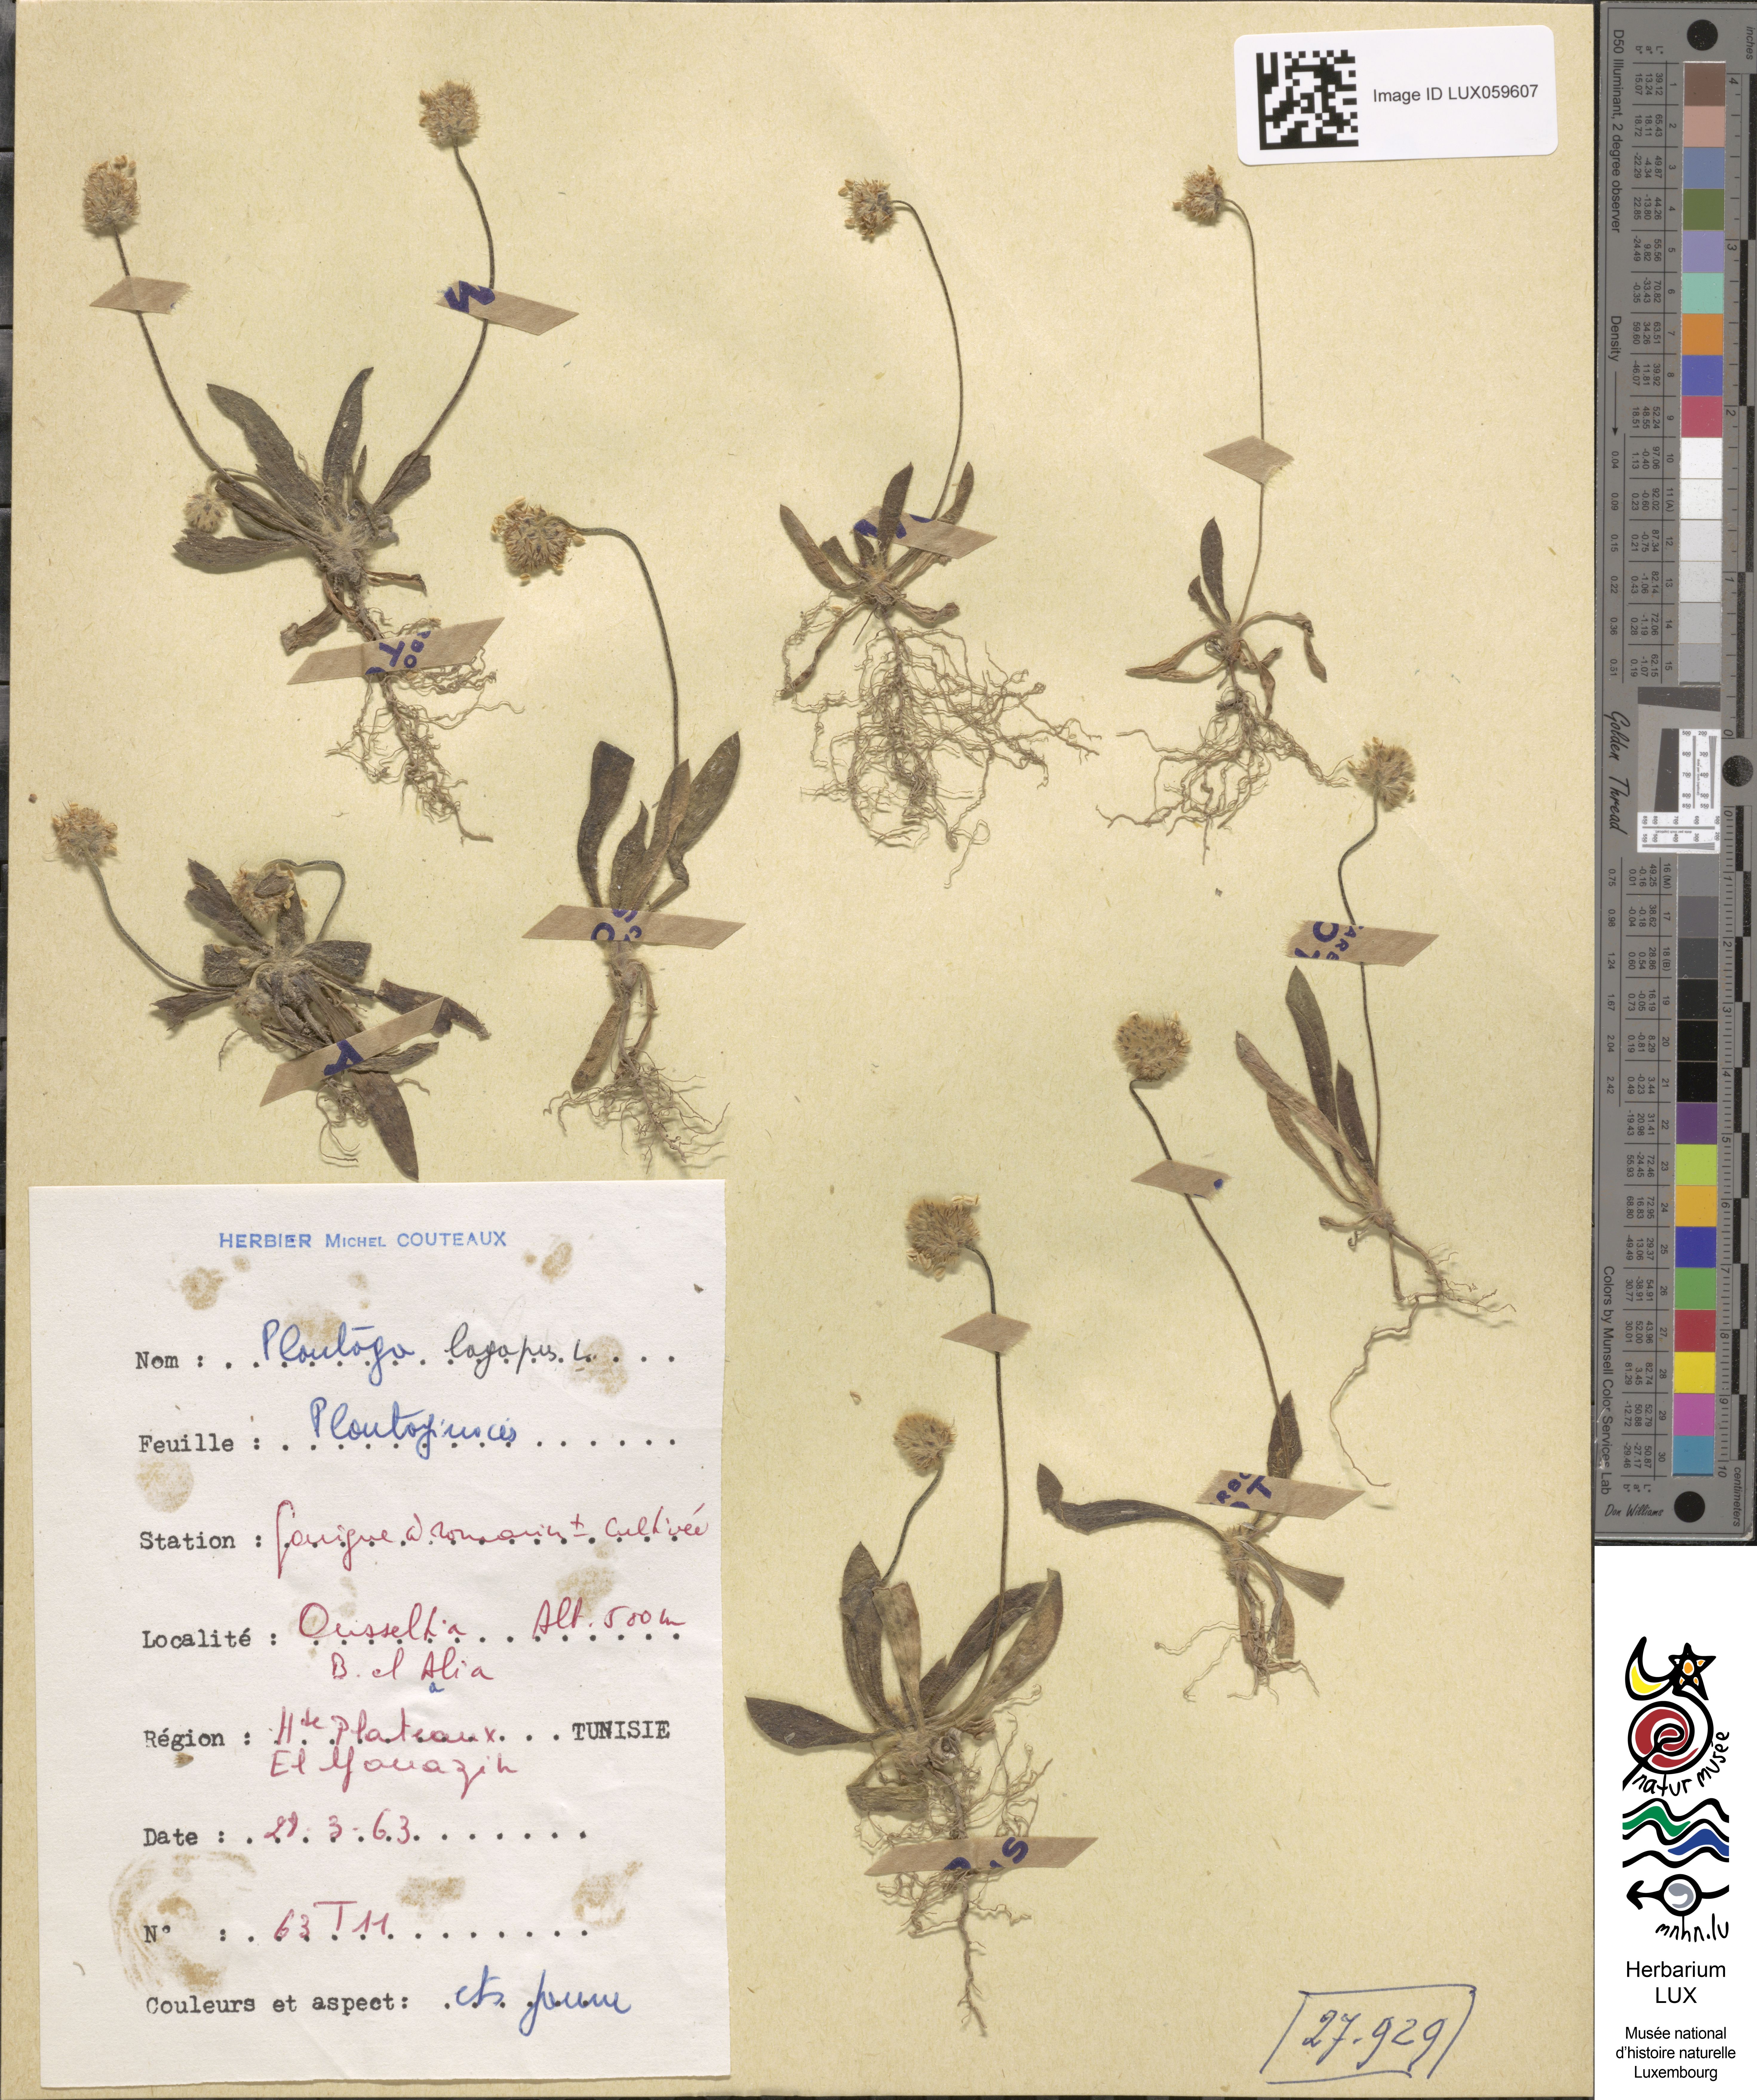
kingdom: Plantae
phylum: Tracheophyta
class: Magnoliopsida
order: Lamiales
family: Plantaginaceae
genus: Plantago
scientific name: Plantago lagopus
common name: Hare-foot plantain
